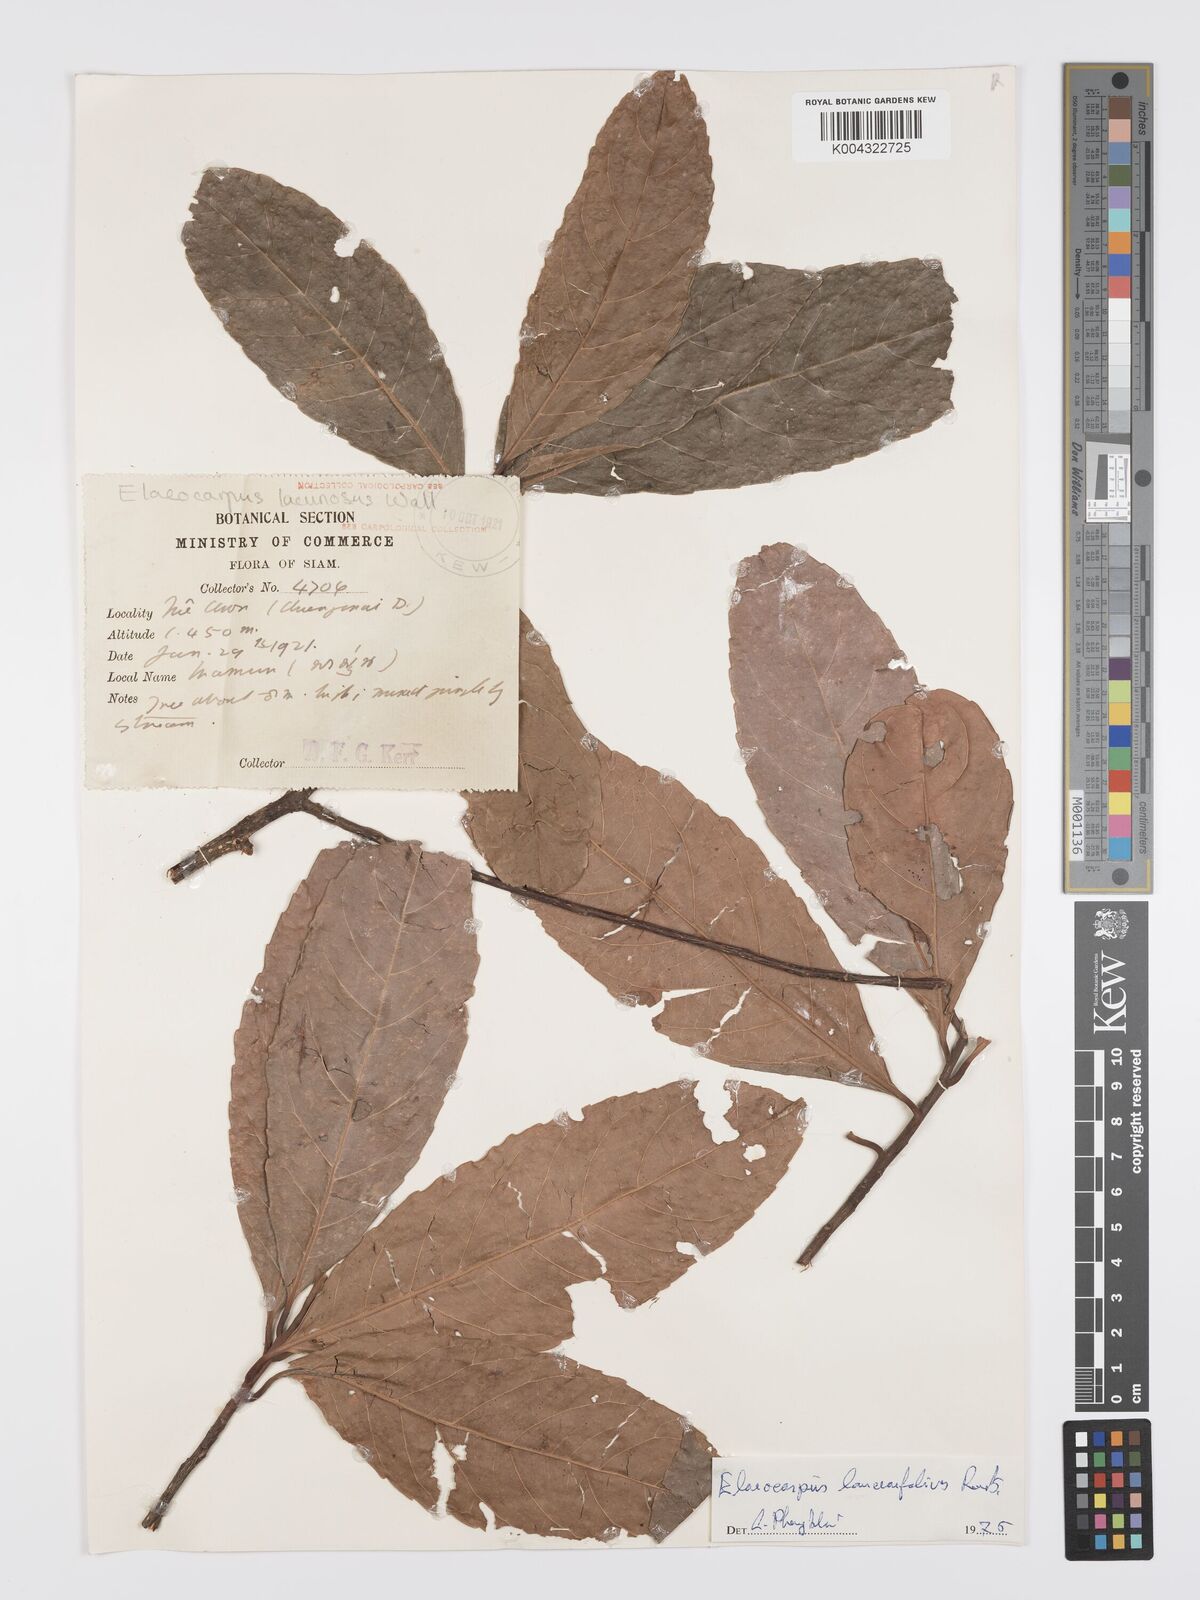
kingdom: Plantae
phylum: Tracheophyta
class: Magnoliopsida
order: Oxalidales
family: Elaeocarpaceae
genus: Elaeocarpus
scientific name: Elaeocarpus lanceifolius
